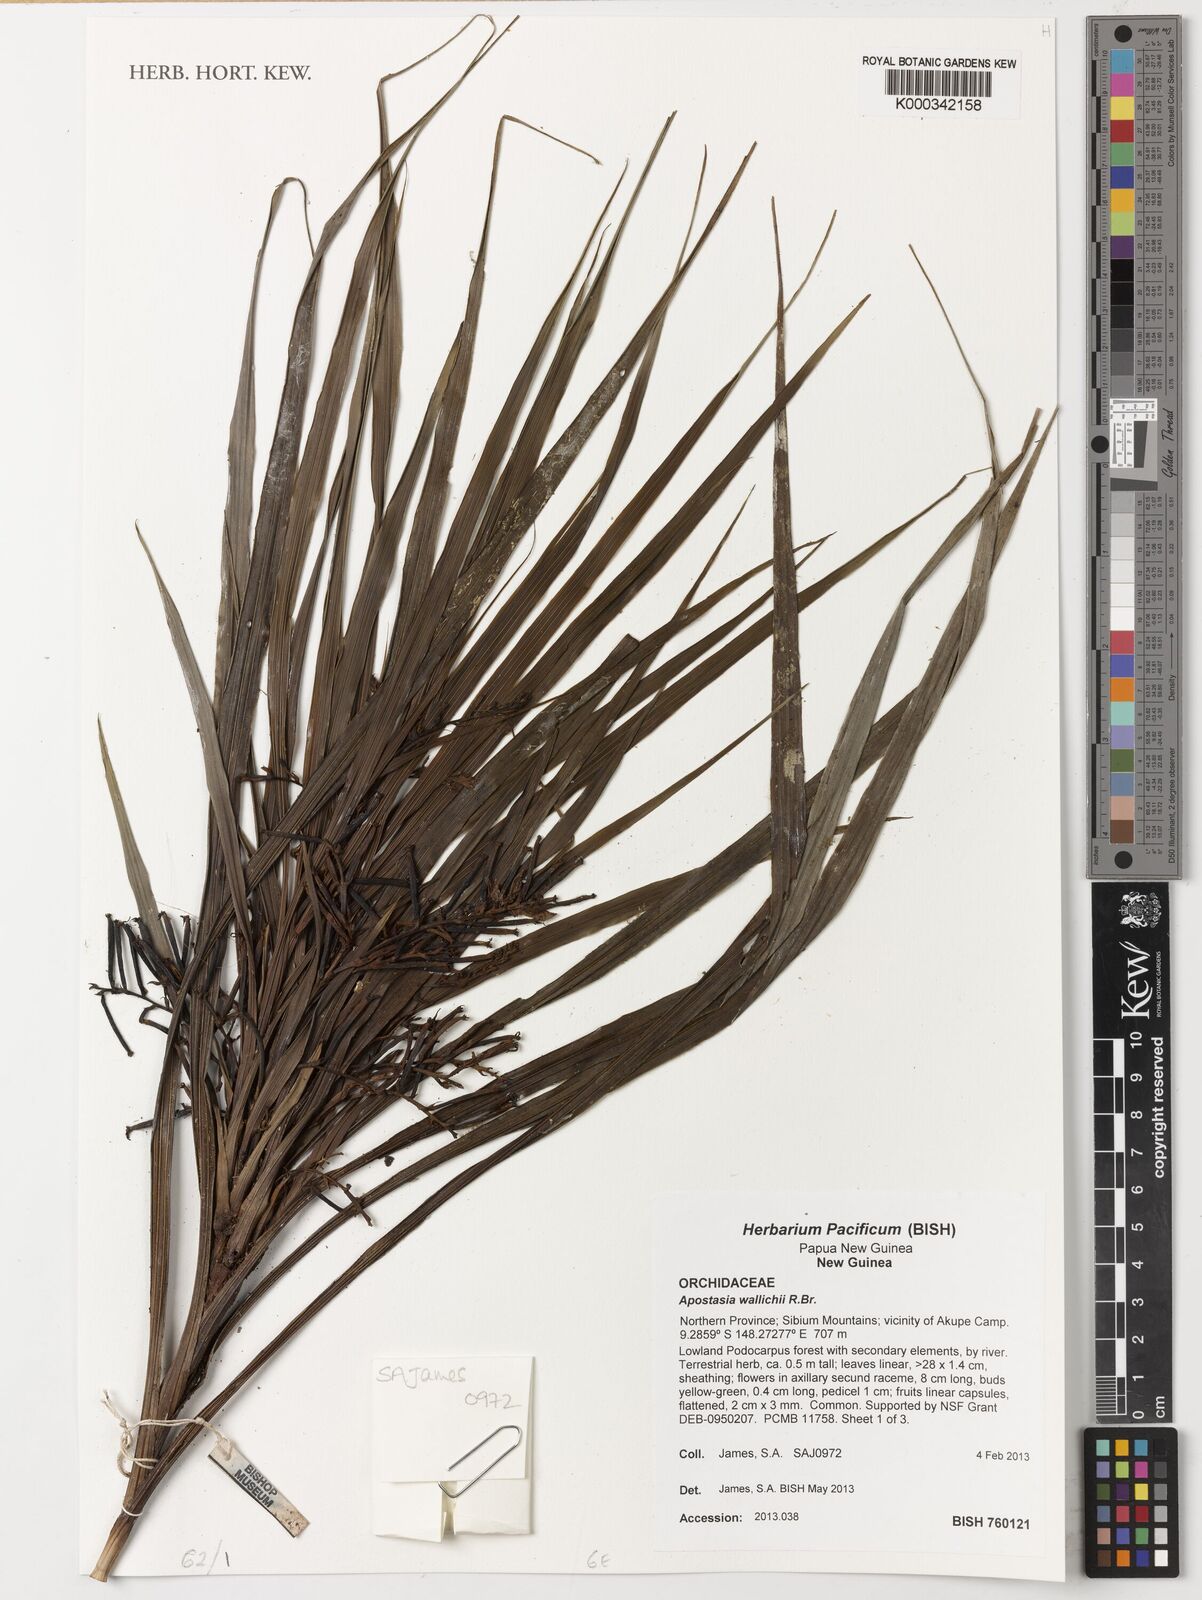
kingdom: Plantae
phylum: Tracheophyta
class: Liliopsida
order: Asparagales
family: Orchidaceae
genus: Apostasia
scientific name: Apostasia wallichii
